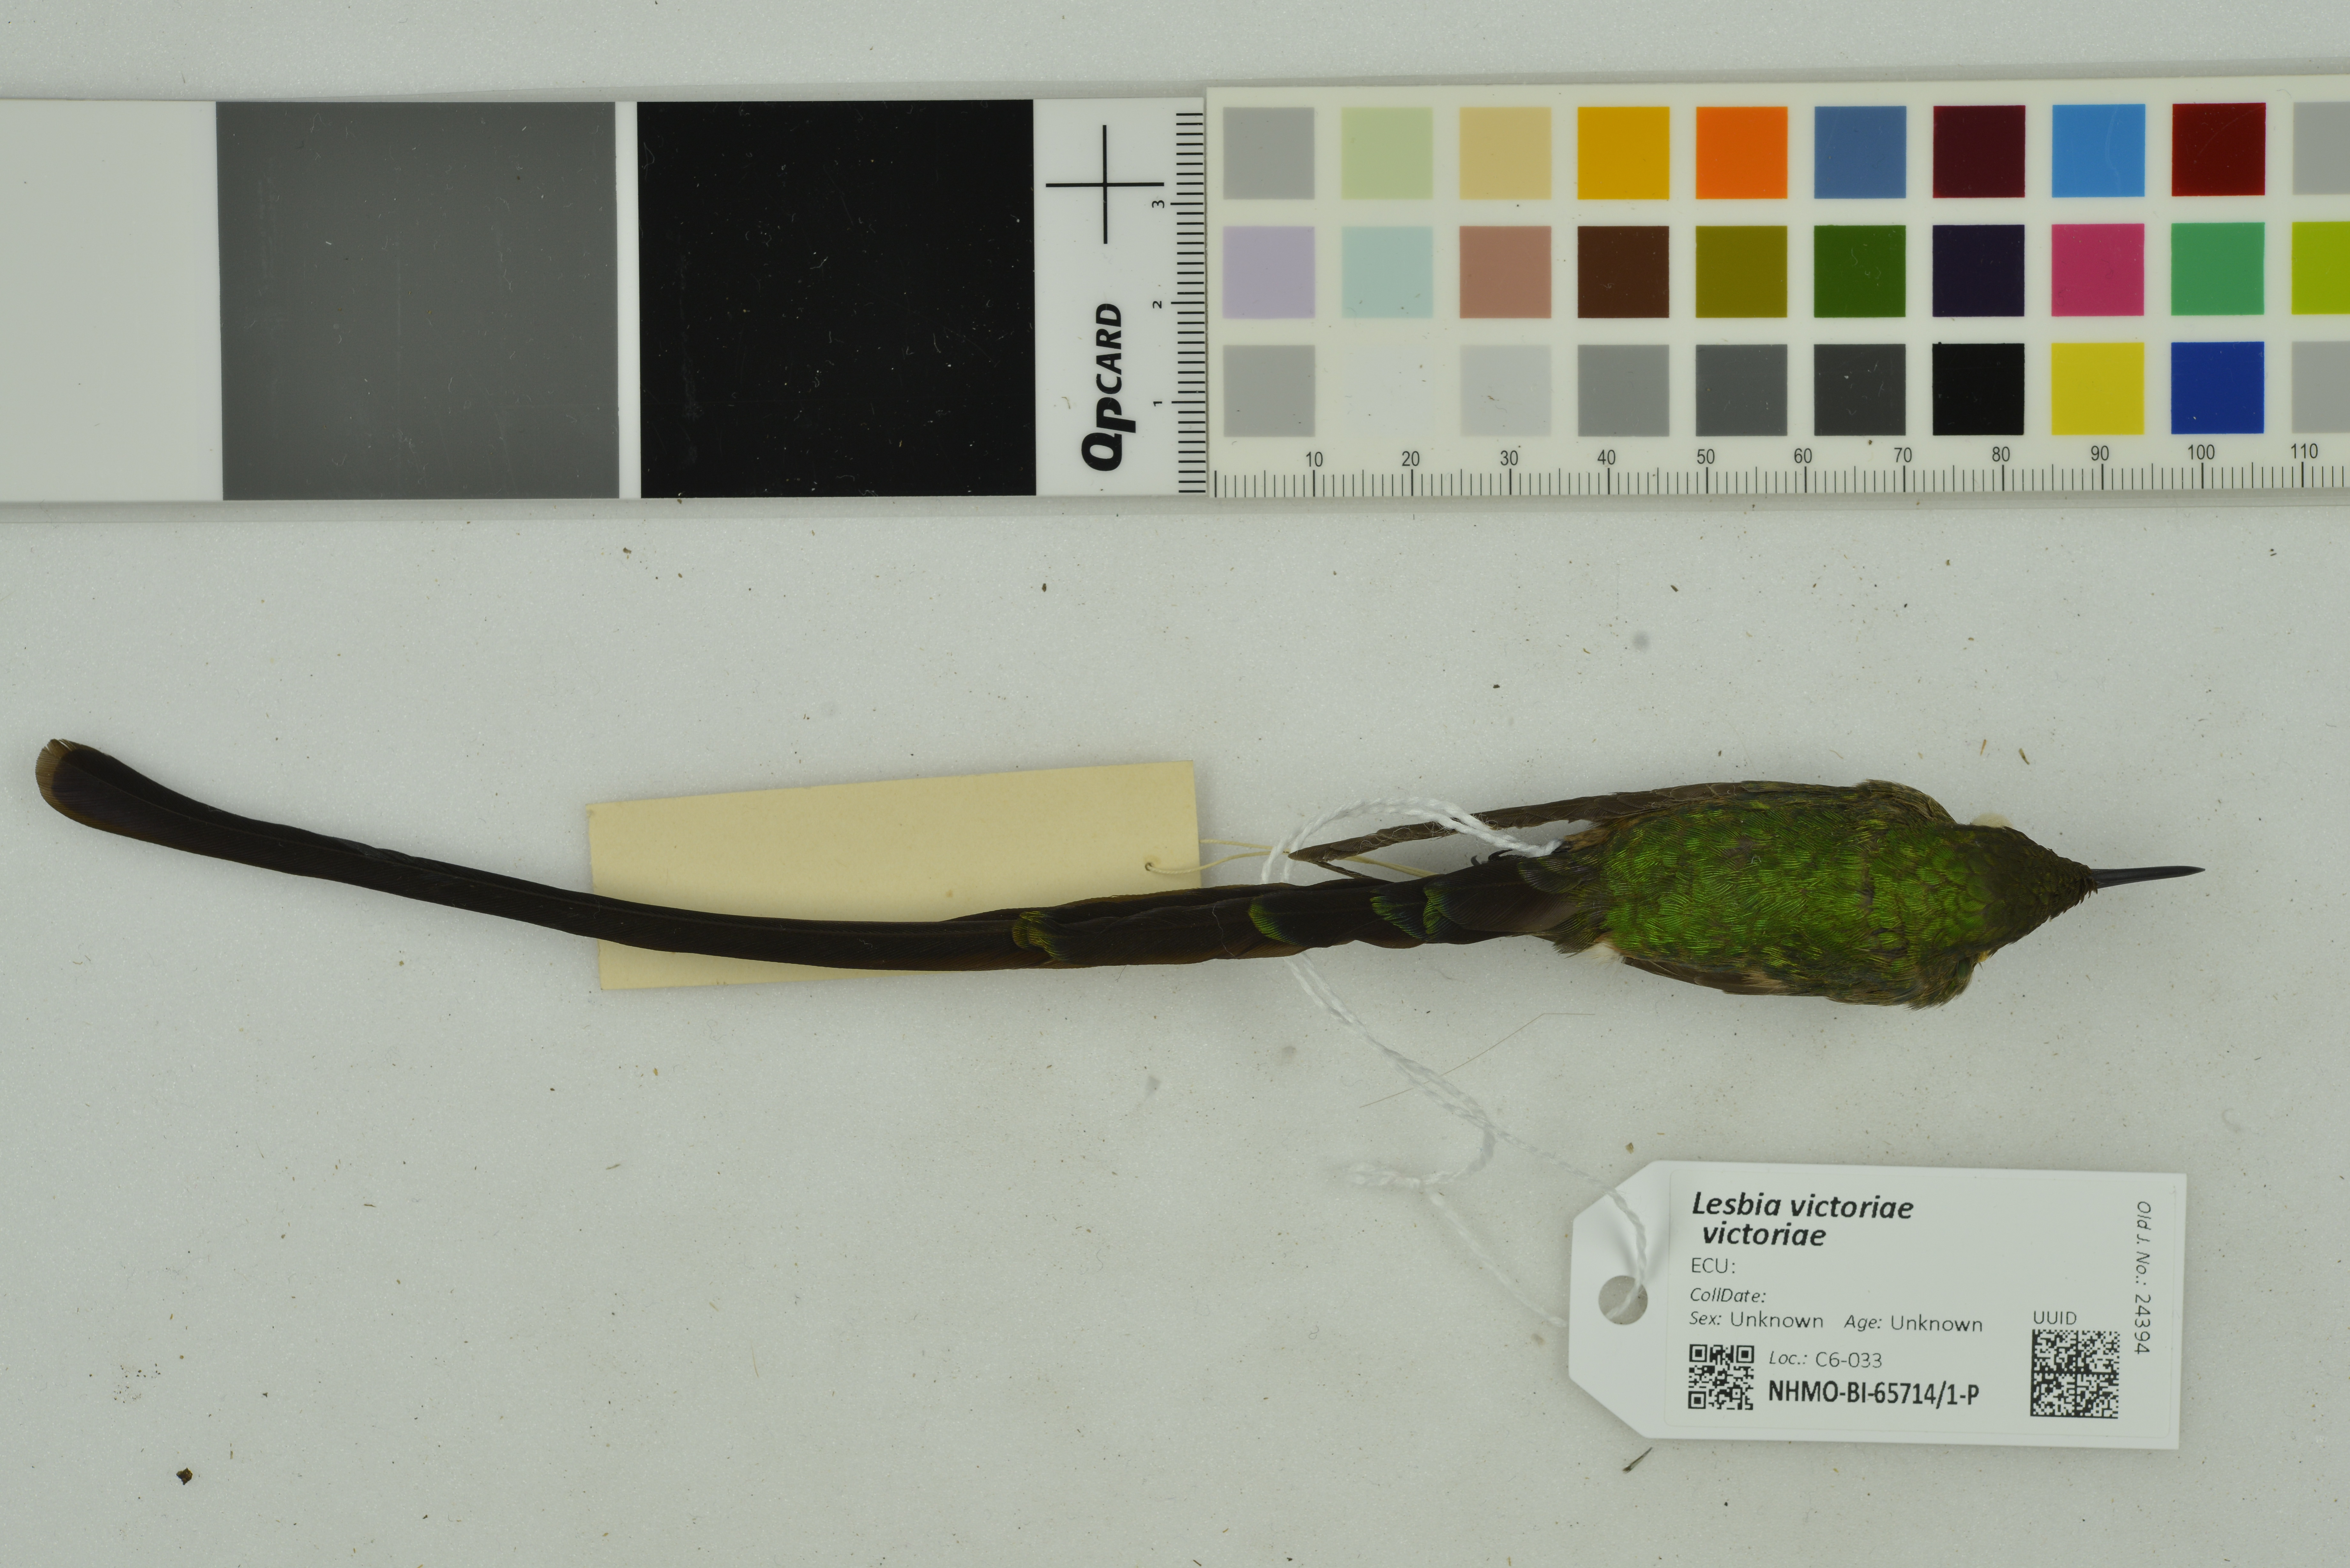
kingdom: Animalia
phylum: Chordata
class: Aves
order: Apodiformes
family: Trochilidae
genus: Lesbia
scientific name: Lesbia victoriae
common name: Black-tailed trainbearer
